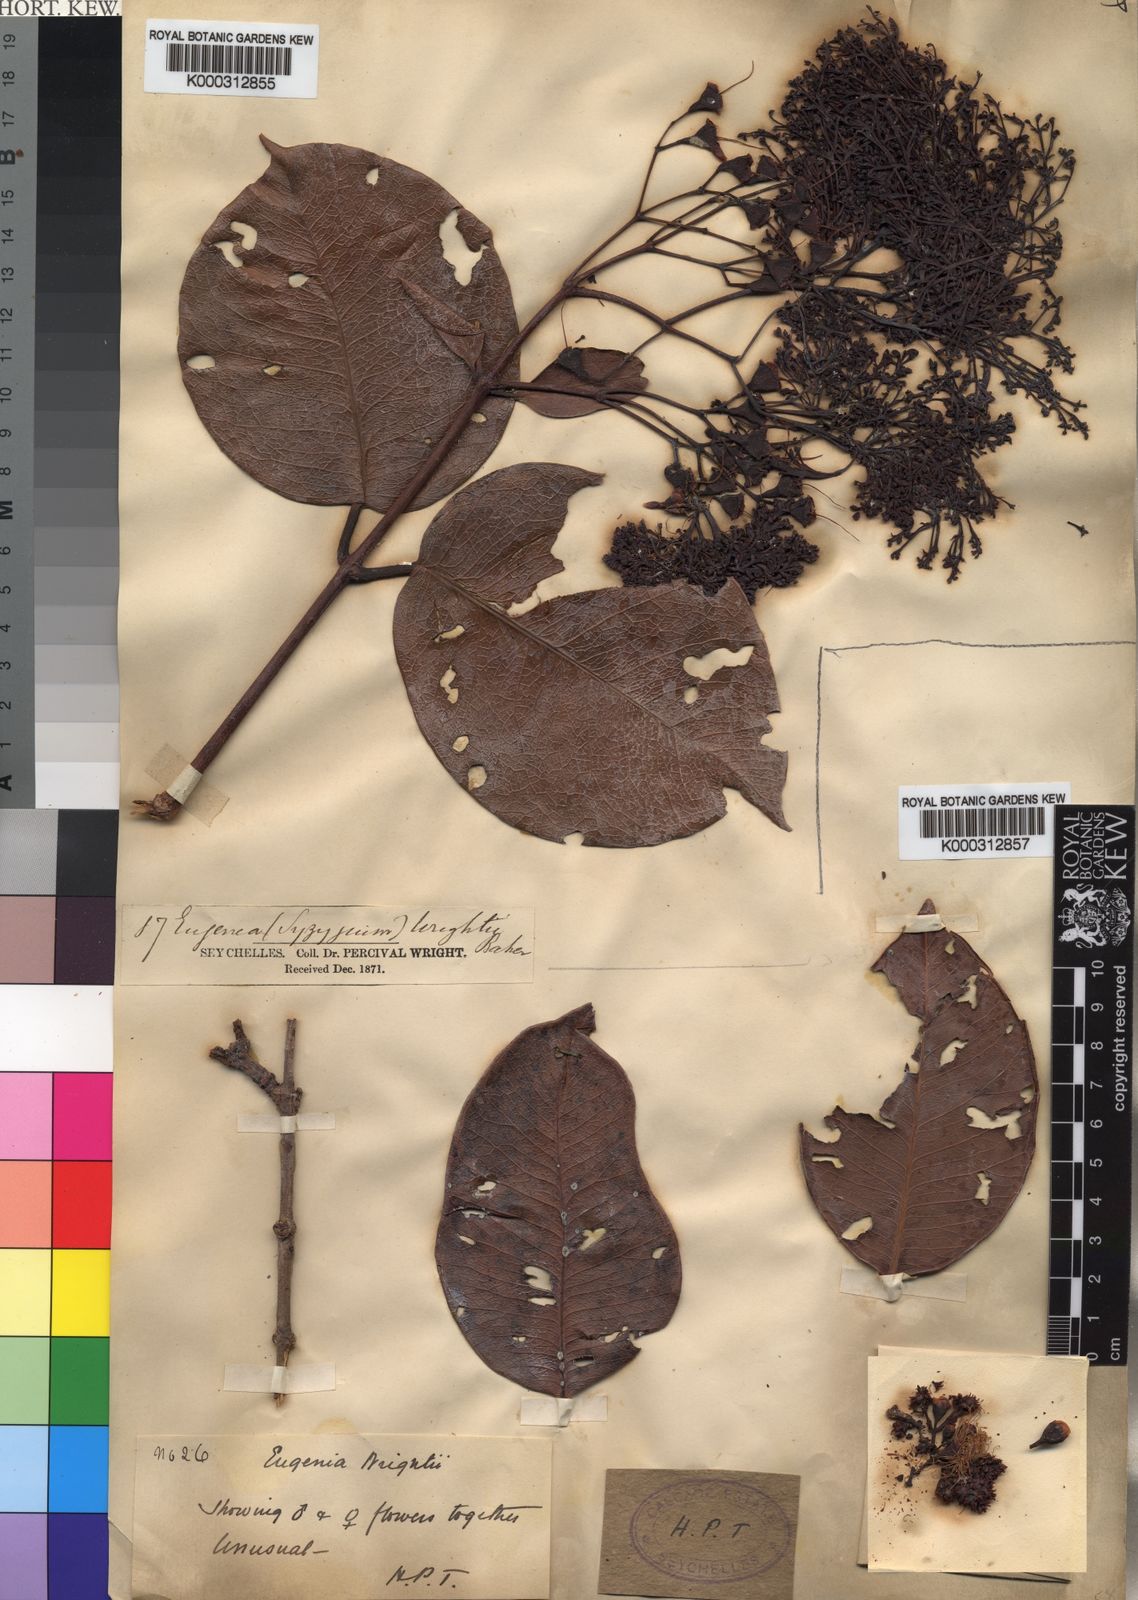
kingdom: Plantae
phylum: Tracheophyta
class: Magnoliopsida
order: Myrtales
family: Myrtaceae
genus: Syzygium
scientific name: Syzygium wrightii
